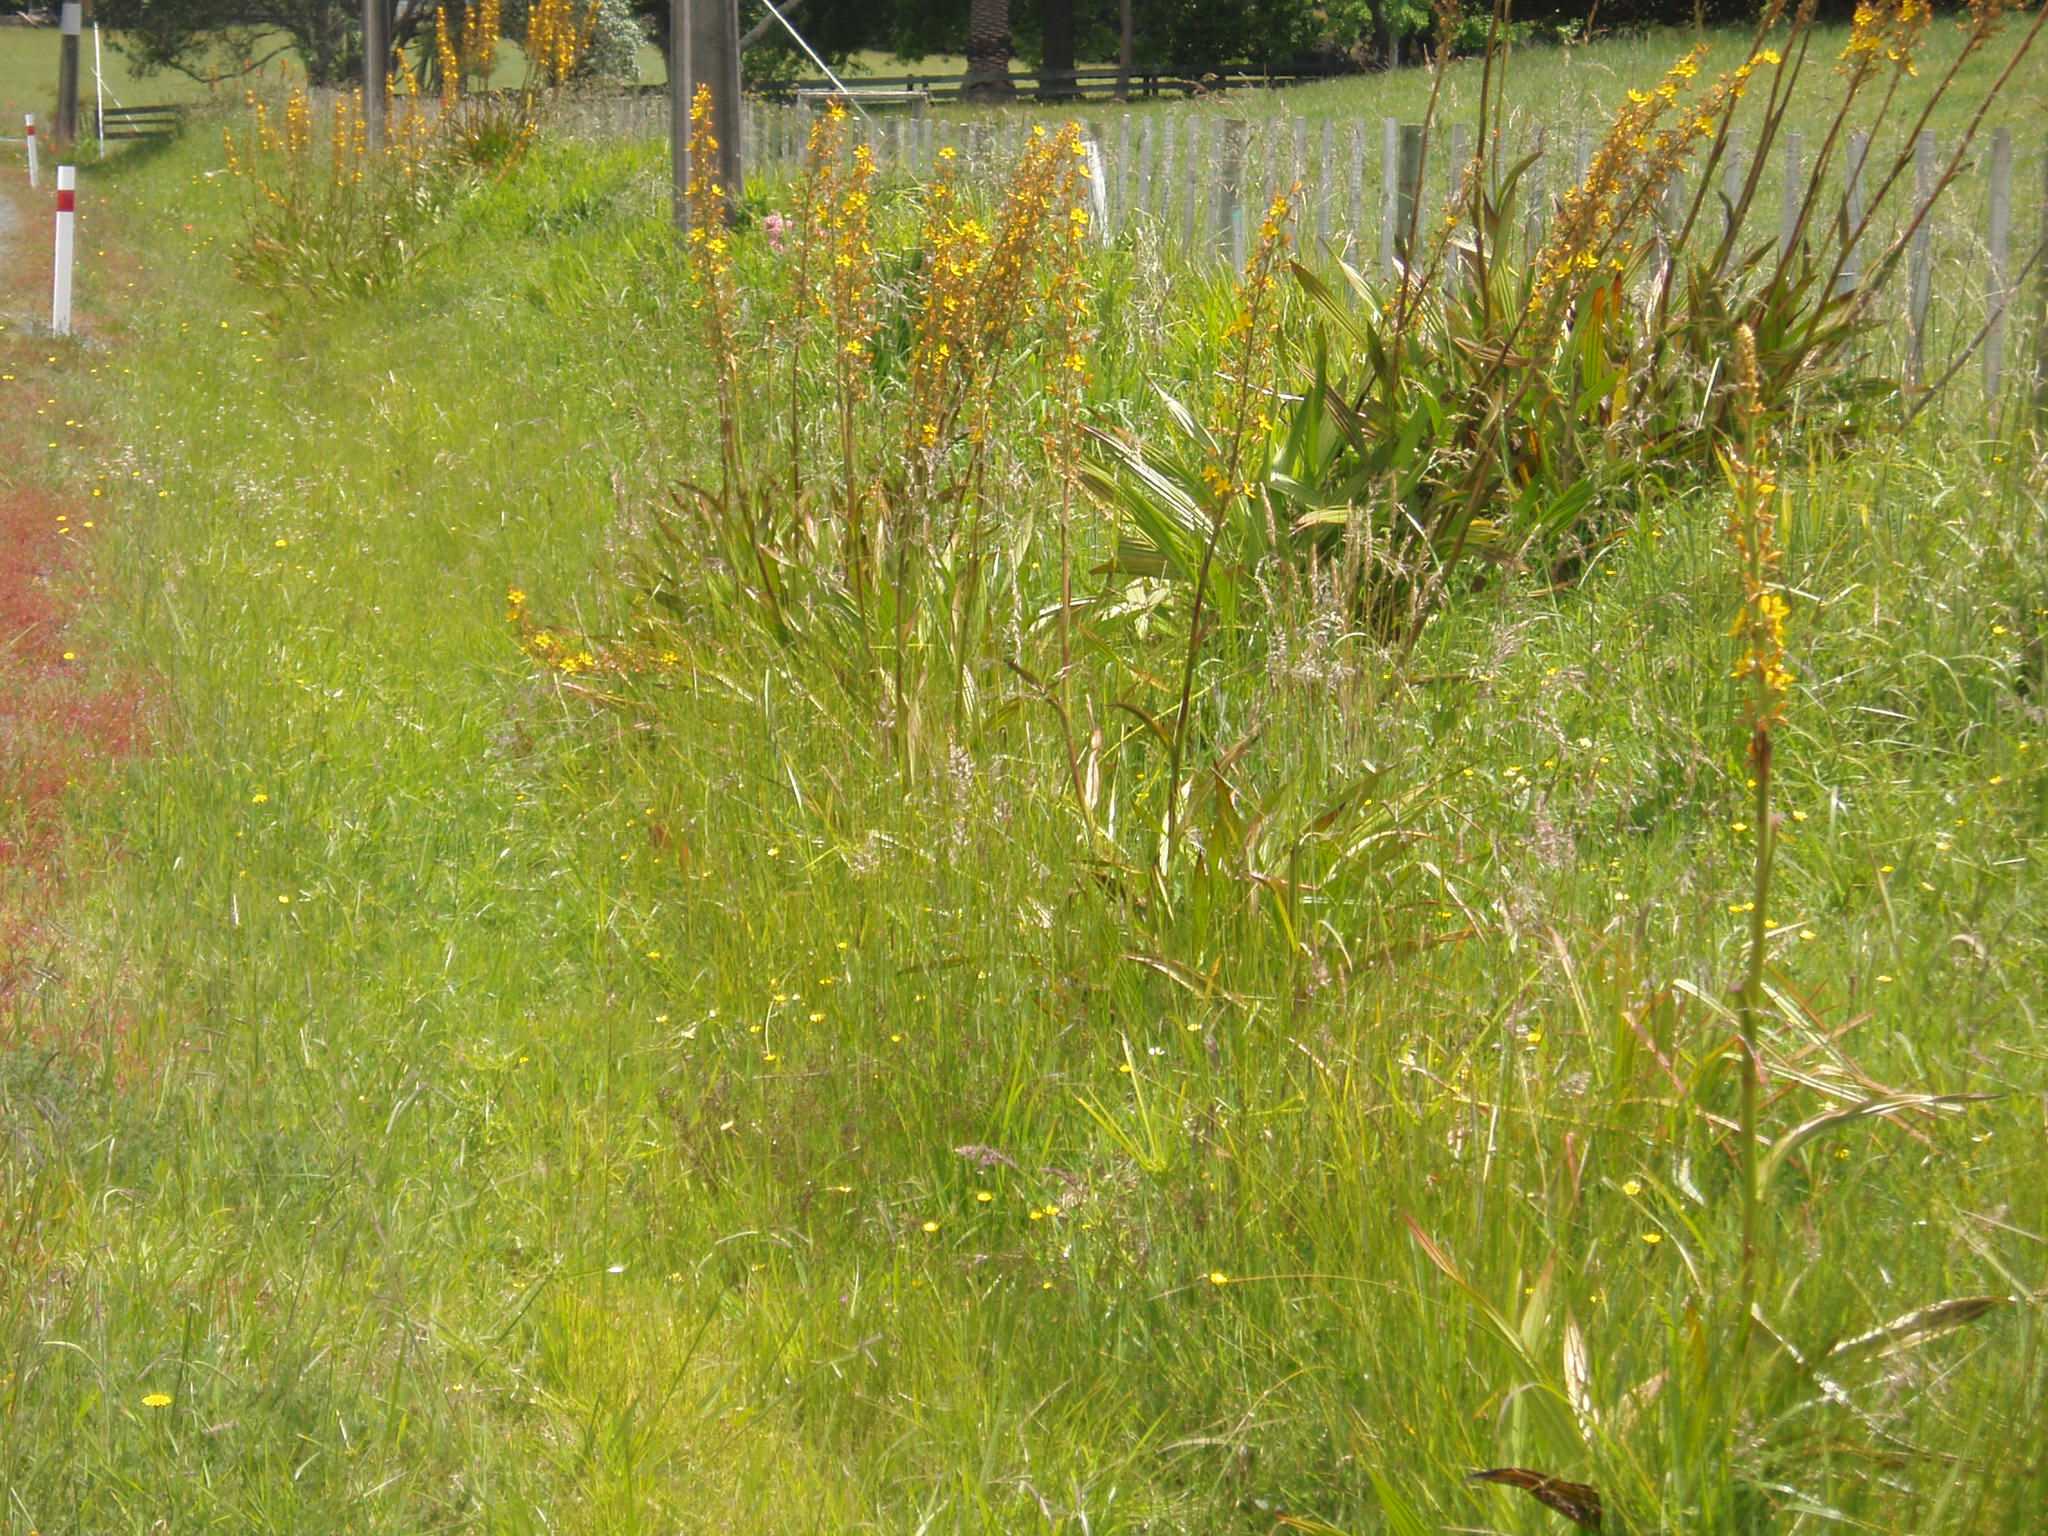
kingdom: Plantae
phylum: Tracheophyta
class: Magnoliopsida
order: Myrtales
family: Lythraceae
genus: Lythrum
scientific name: Lythrum junceum
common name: False grass-poly
